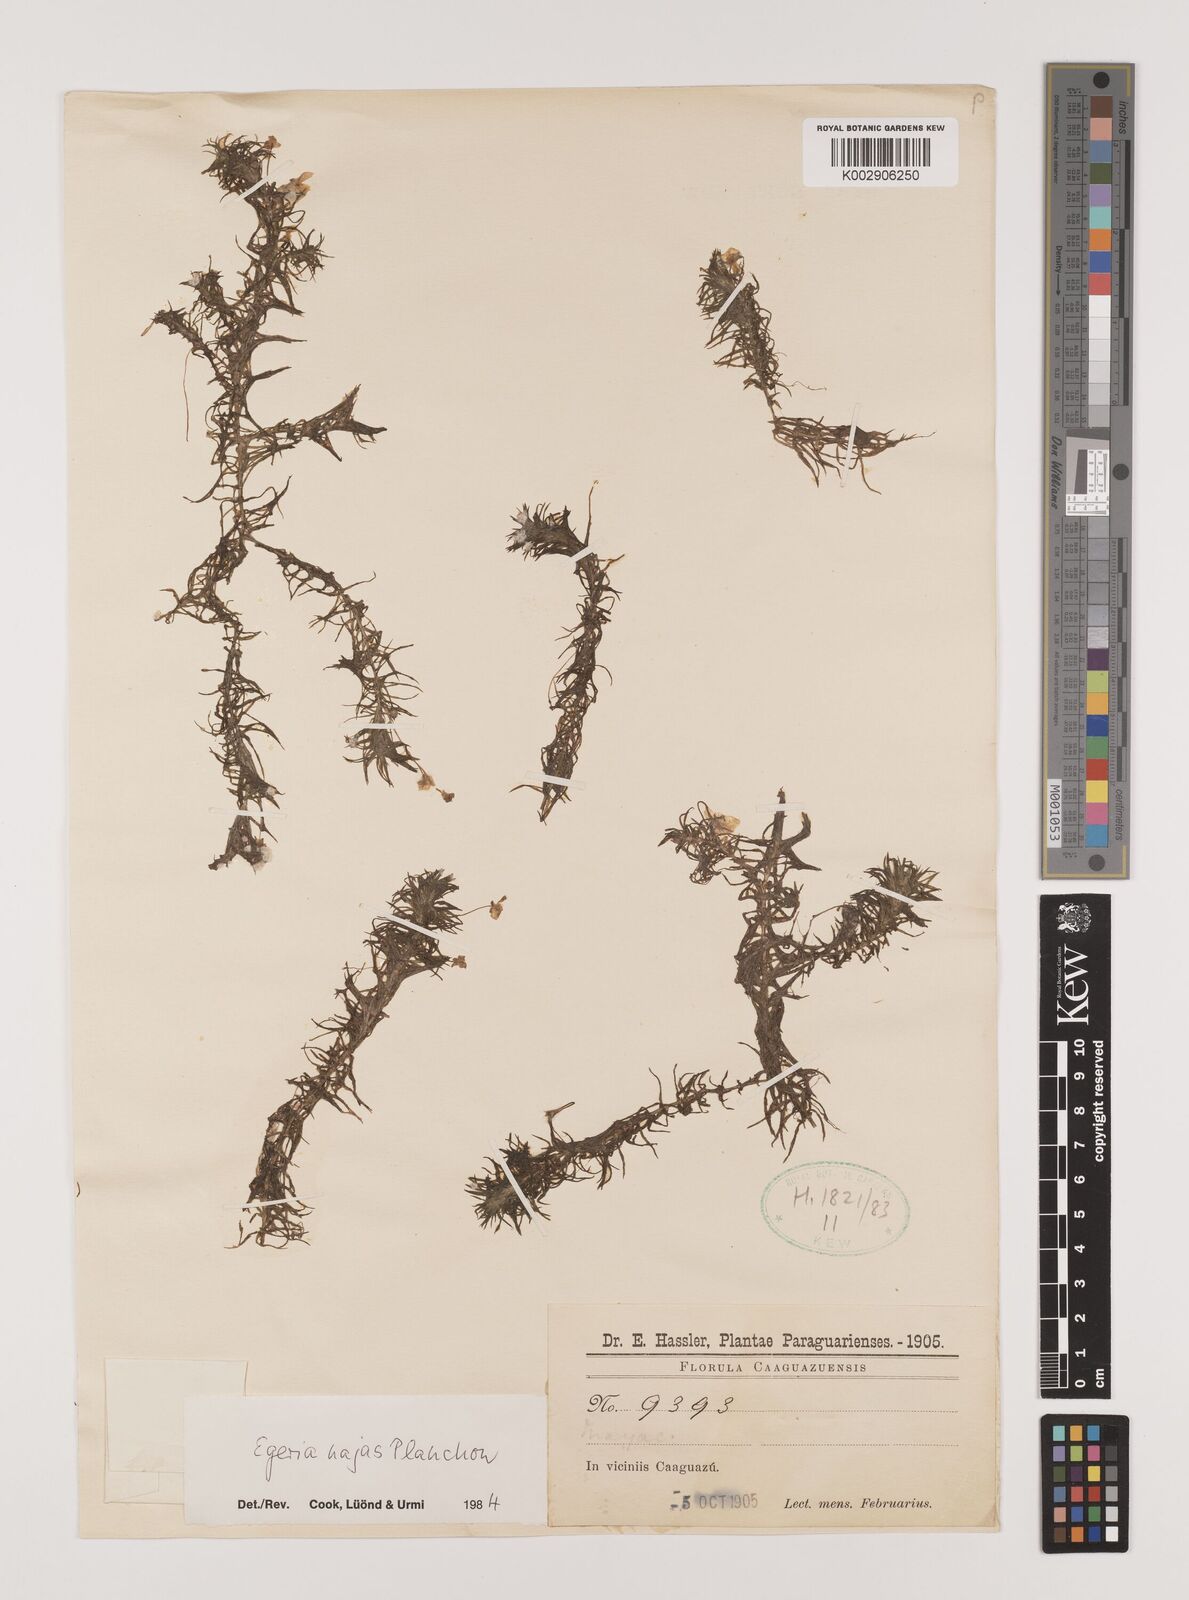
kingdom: Plantae
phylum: Tracheophyta
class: Liliopsida
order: Alismatales
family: Hydrocharitaceae
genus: Elodea
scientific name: Elodea najas
